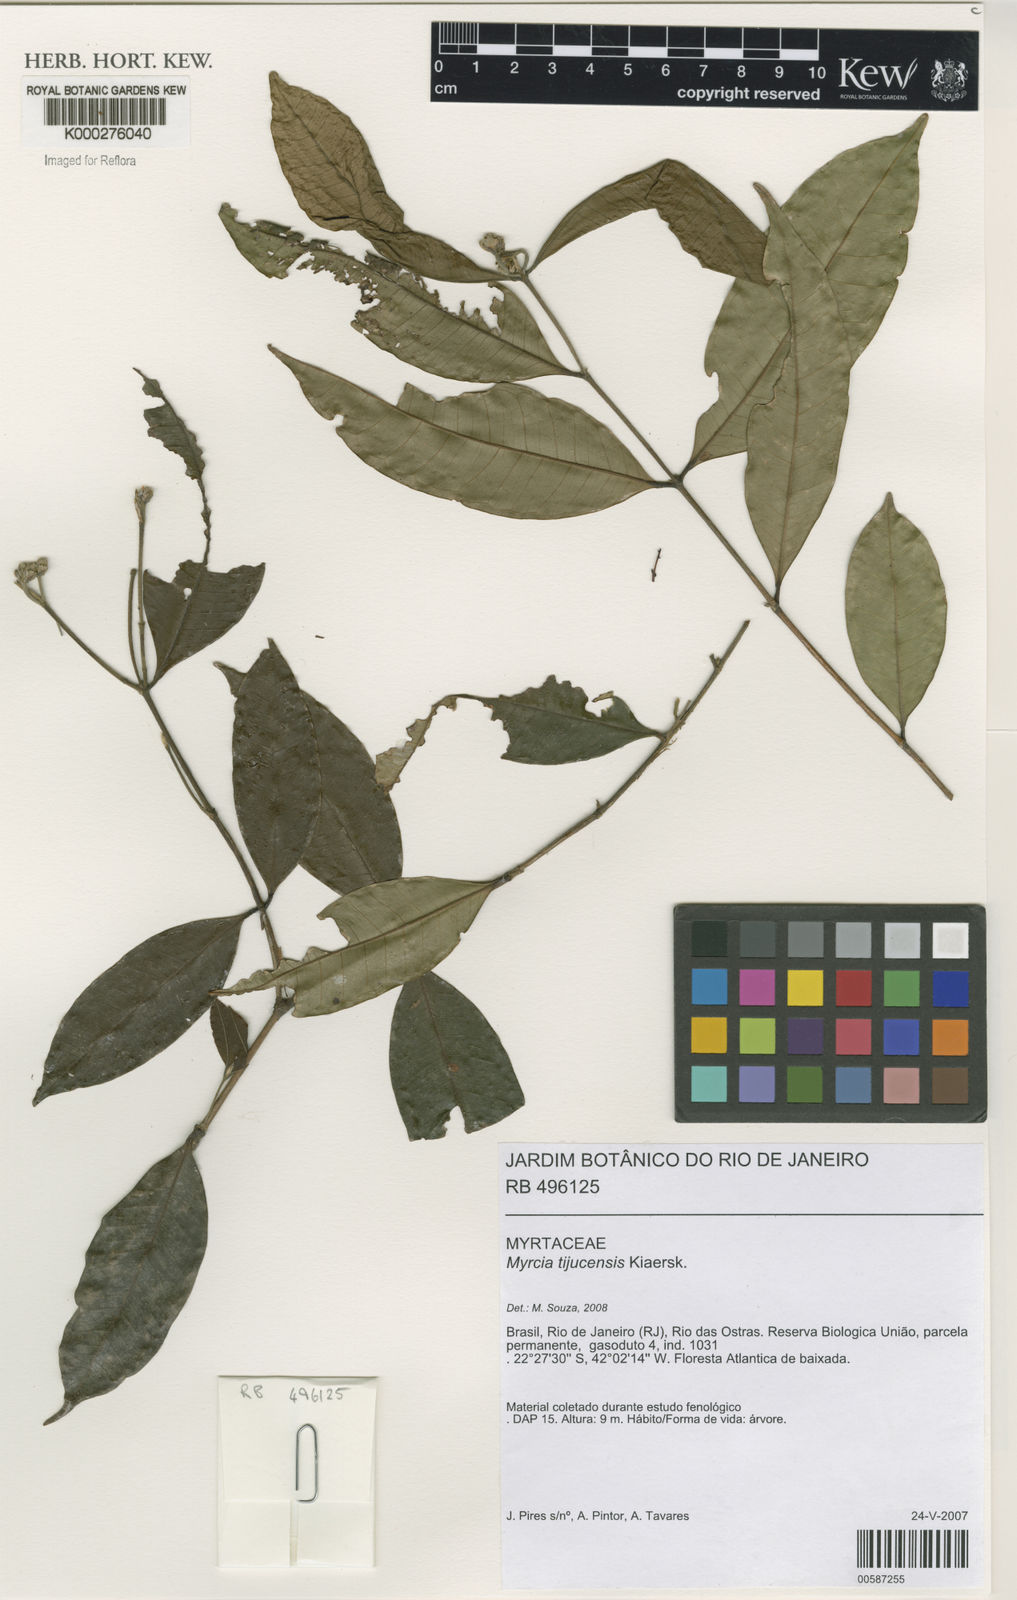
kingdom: Plantae
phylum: Tracheophyta
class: Magnoliopsida
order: Myrtales
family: Myrtaceae
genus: Myrcia
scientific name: Myrcia tijucensis
